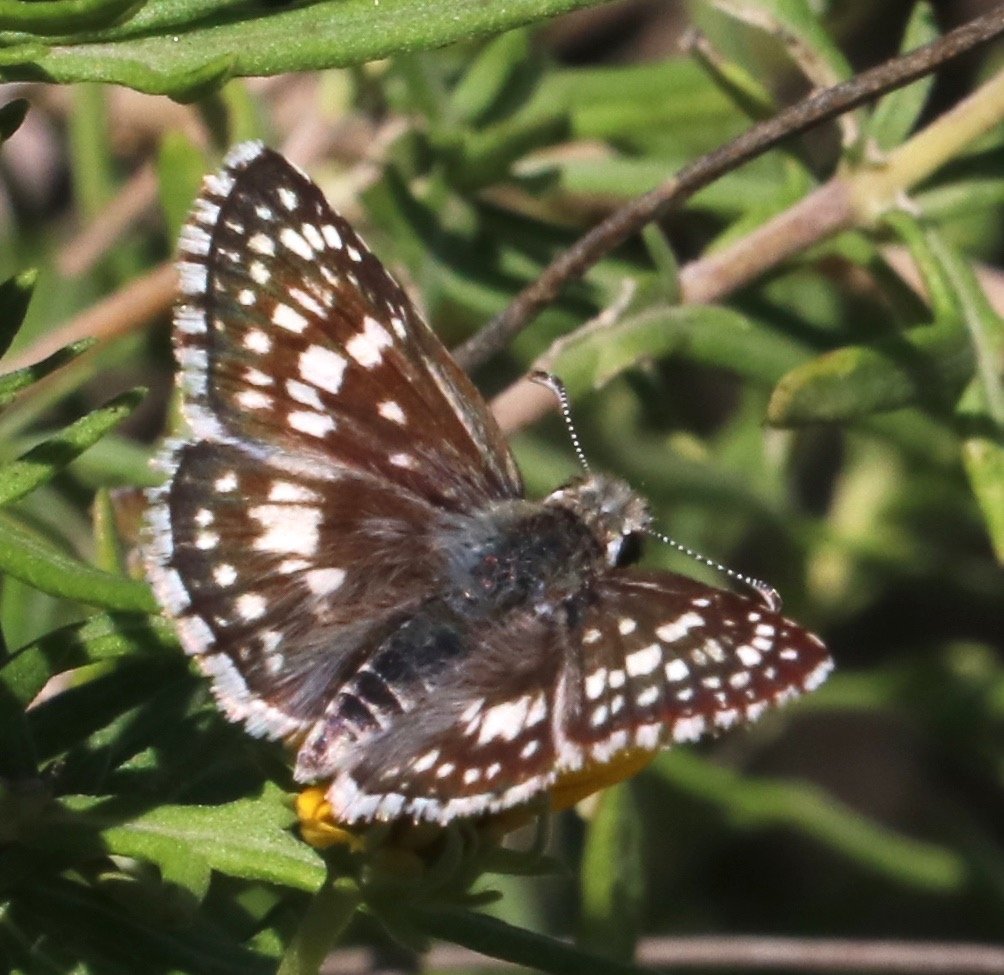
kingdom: Animalia
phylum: Arthropoda
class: Insecta
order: Lepidoptera
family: Hesperiidae
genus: Pyrgus
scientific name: Pyrgus communis
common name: White Checkered-Skipper
